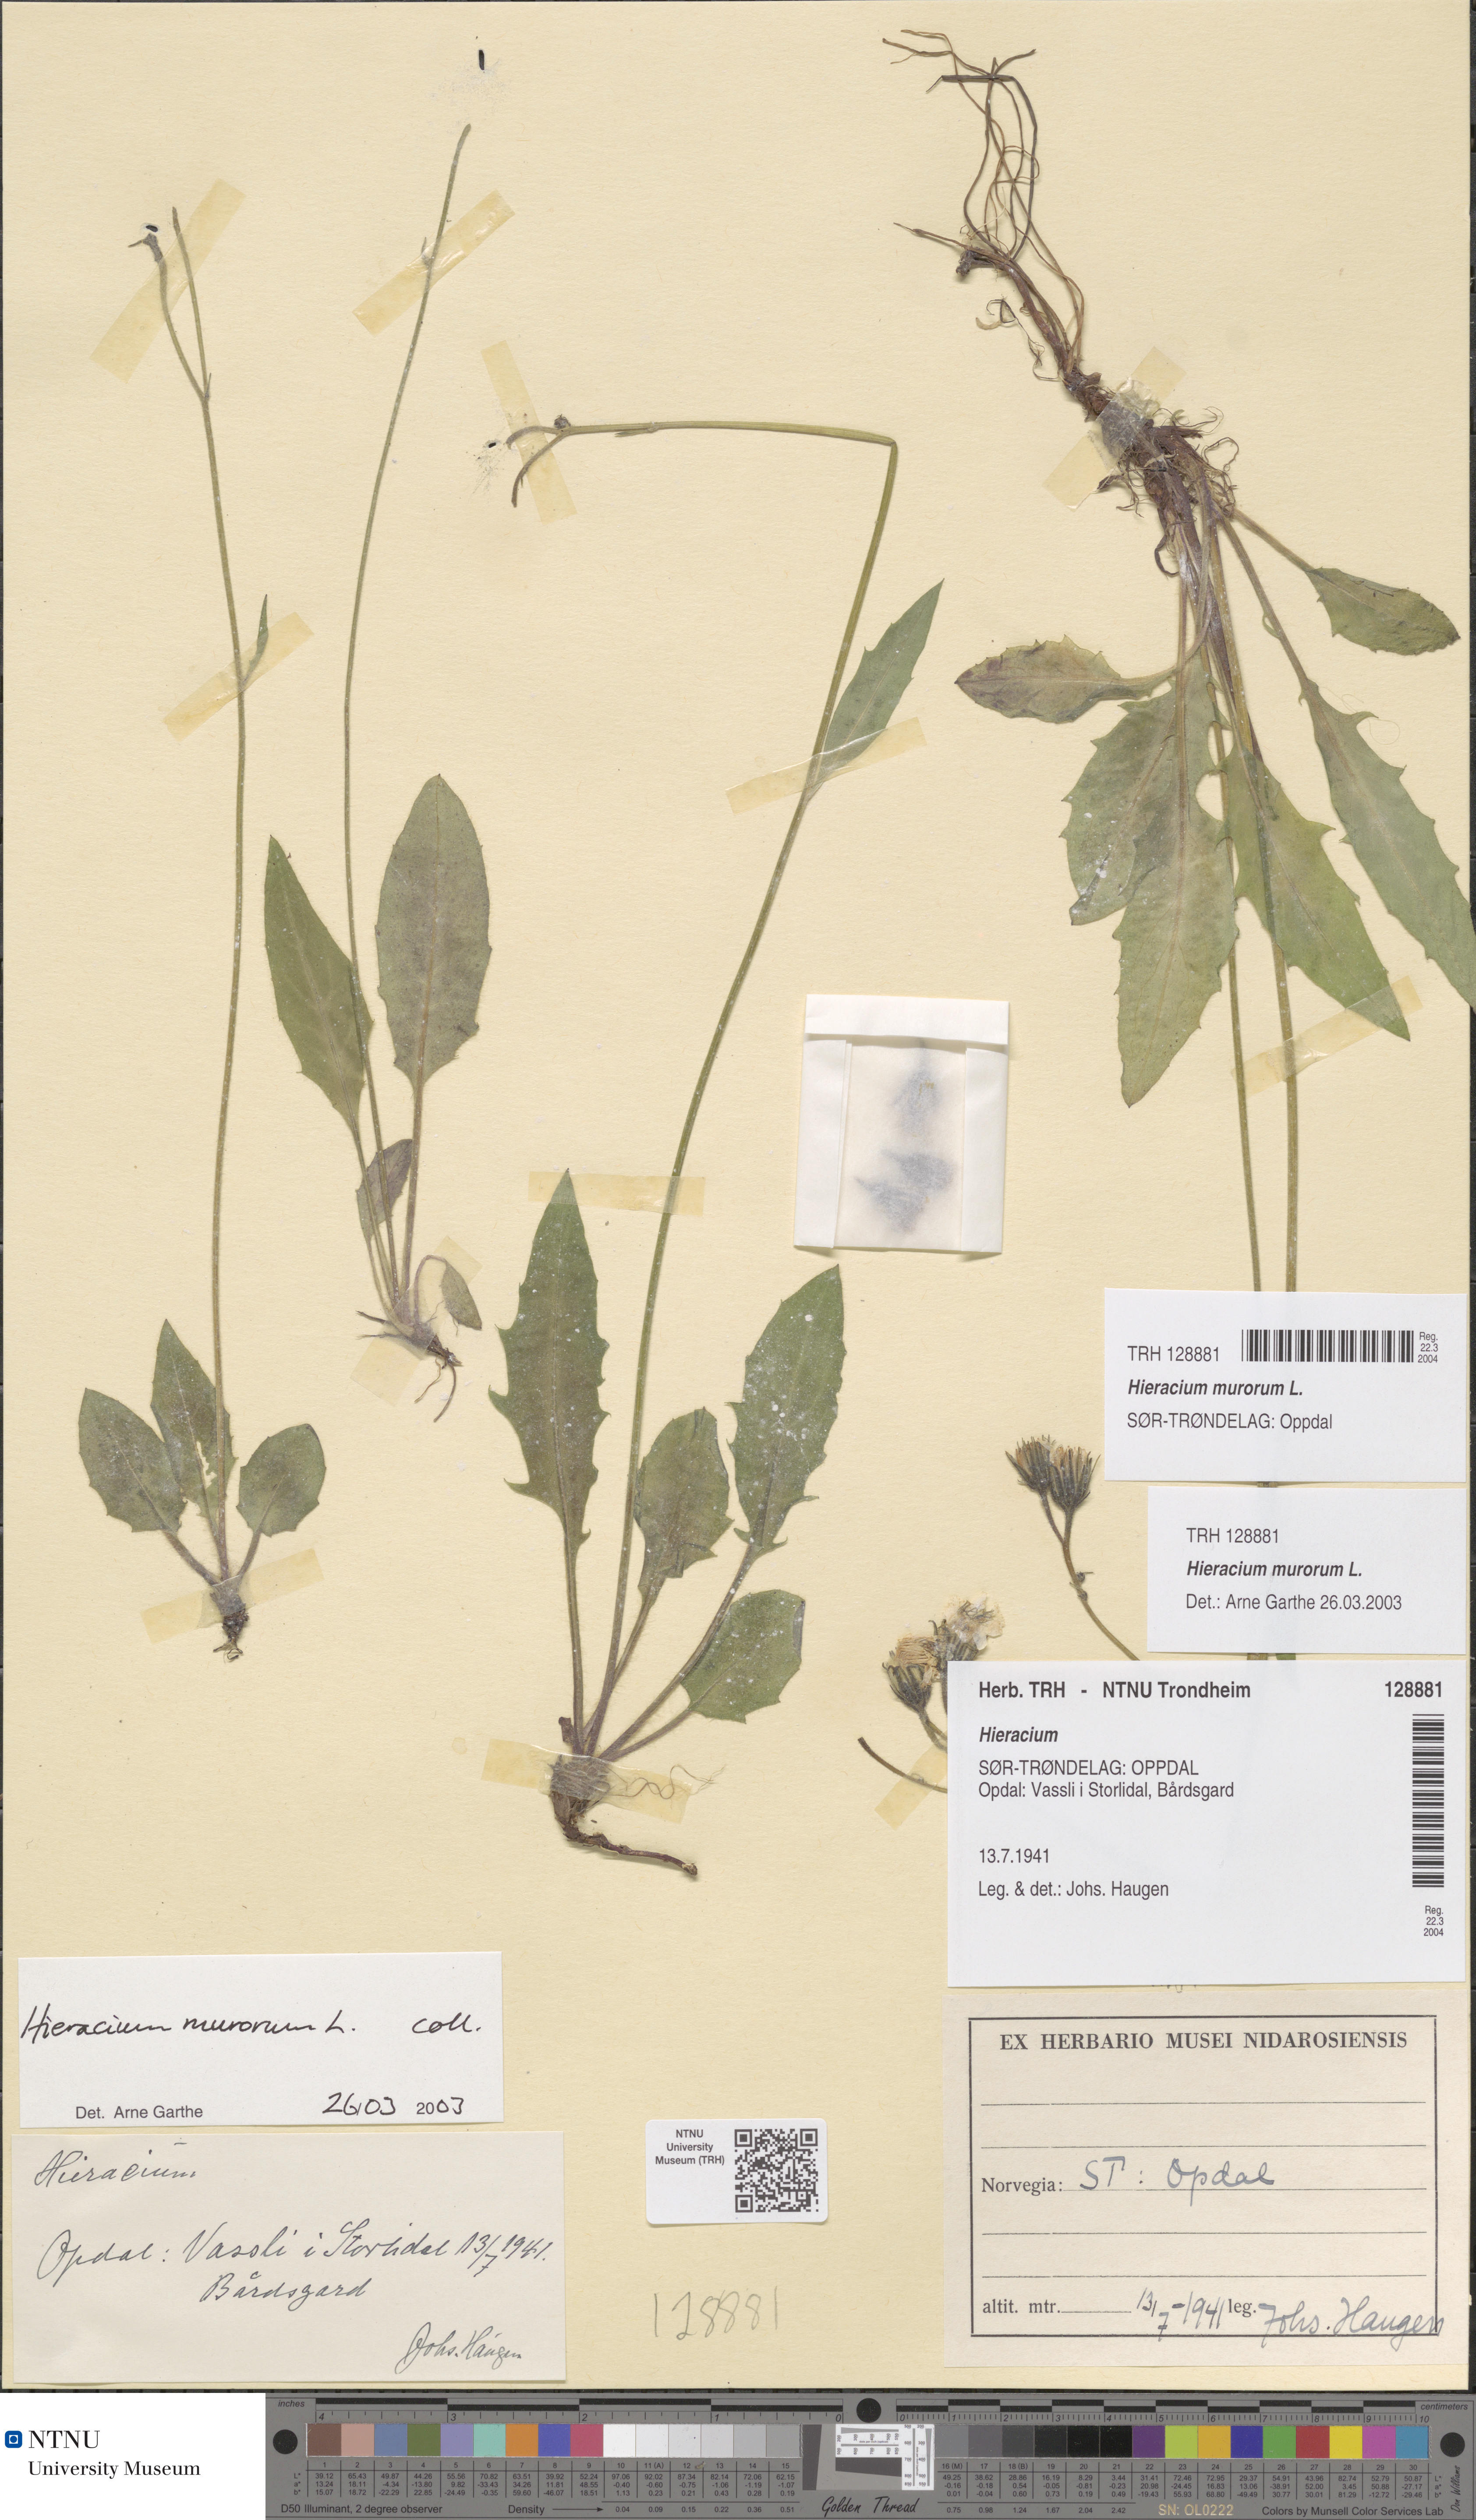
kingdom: Plantae
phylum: Tracheophyta
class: Magnoliopsida
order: Asterales
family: Asteraceae
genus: Hieracium
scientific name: Hieracium murorum
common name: Wall hawkweed
